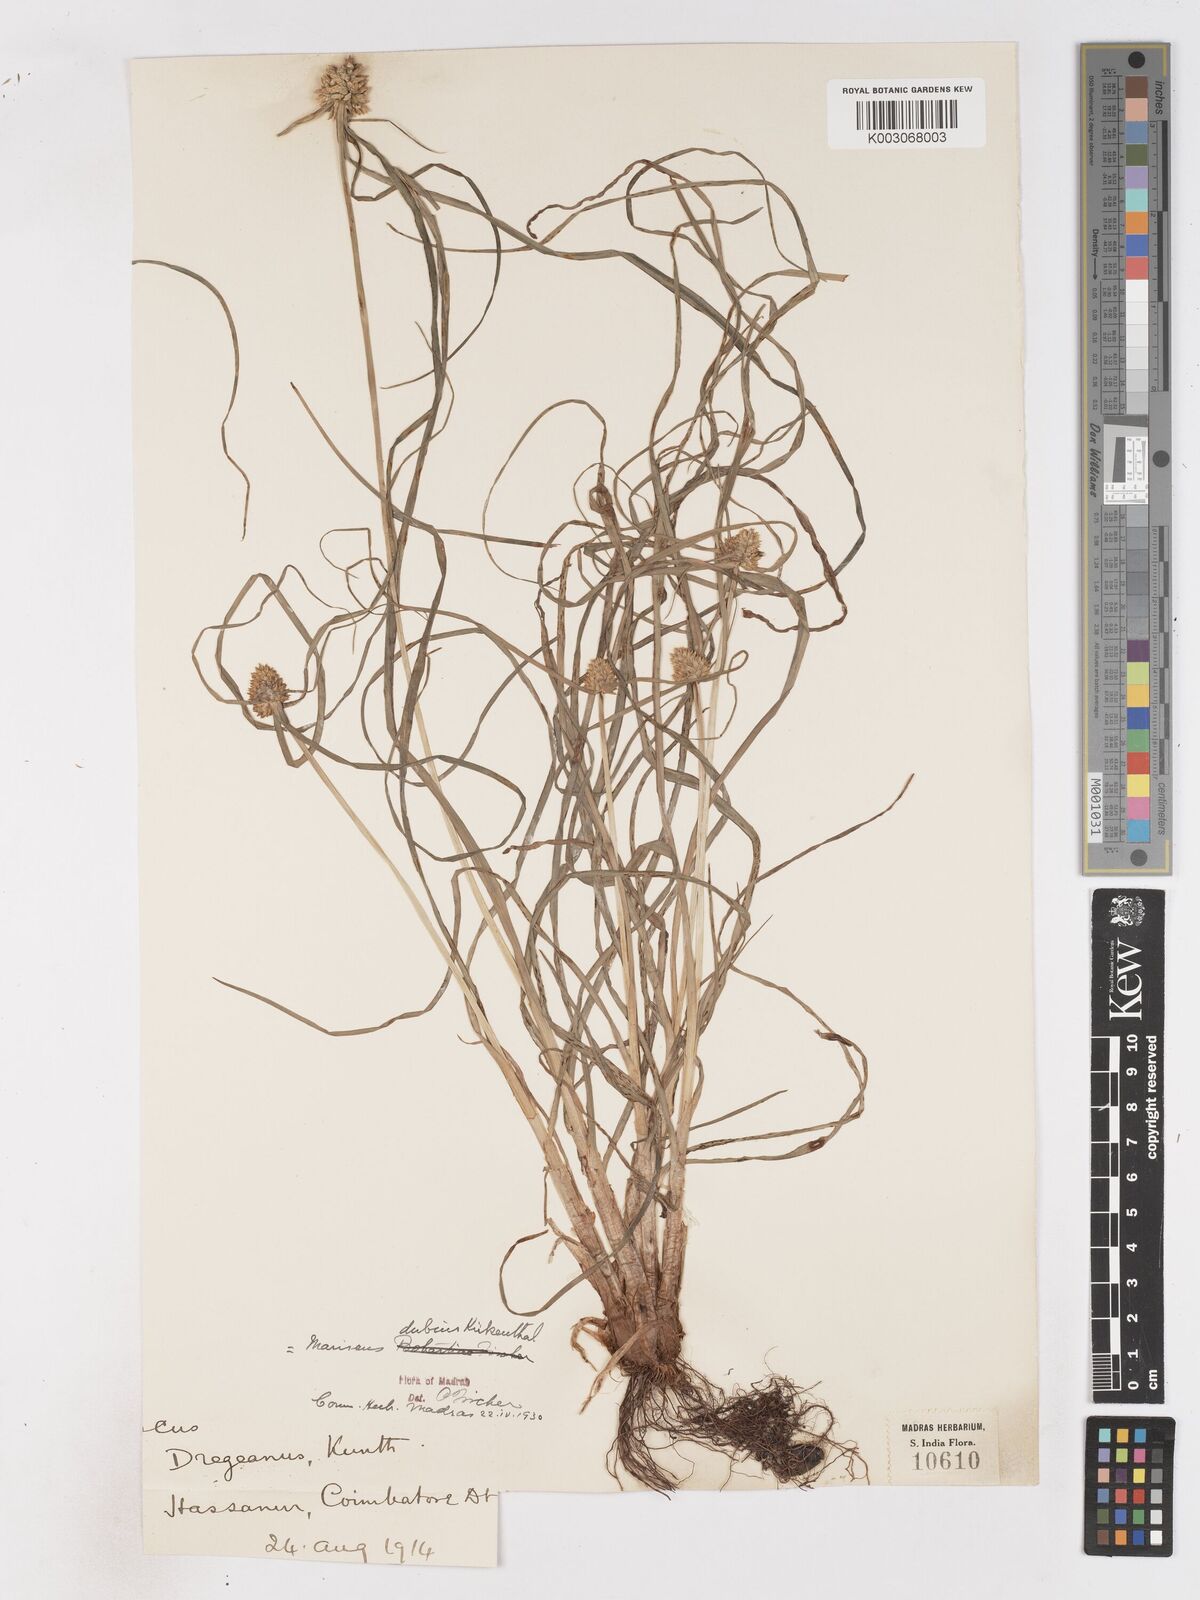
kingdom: Plantae
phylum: Tracheophyta
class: Liliopsida
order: Poales
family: Cyperaceae
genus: Cyperus
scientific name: Cyperus dubius
